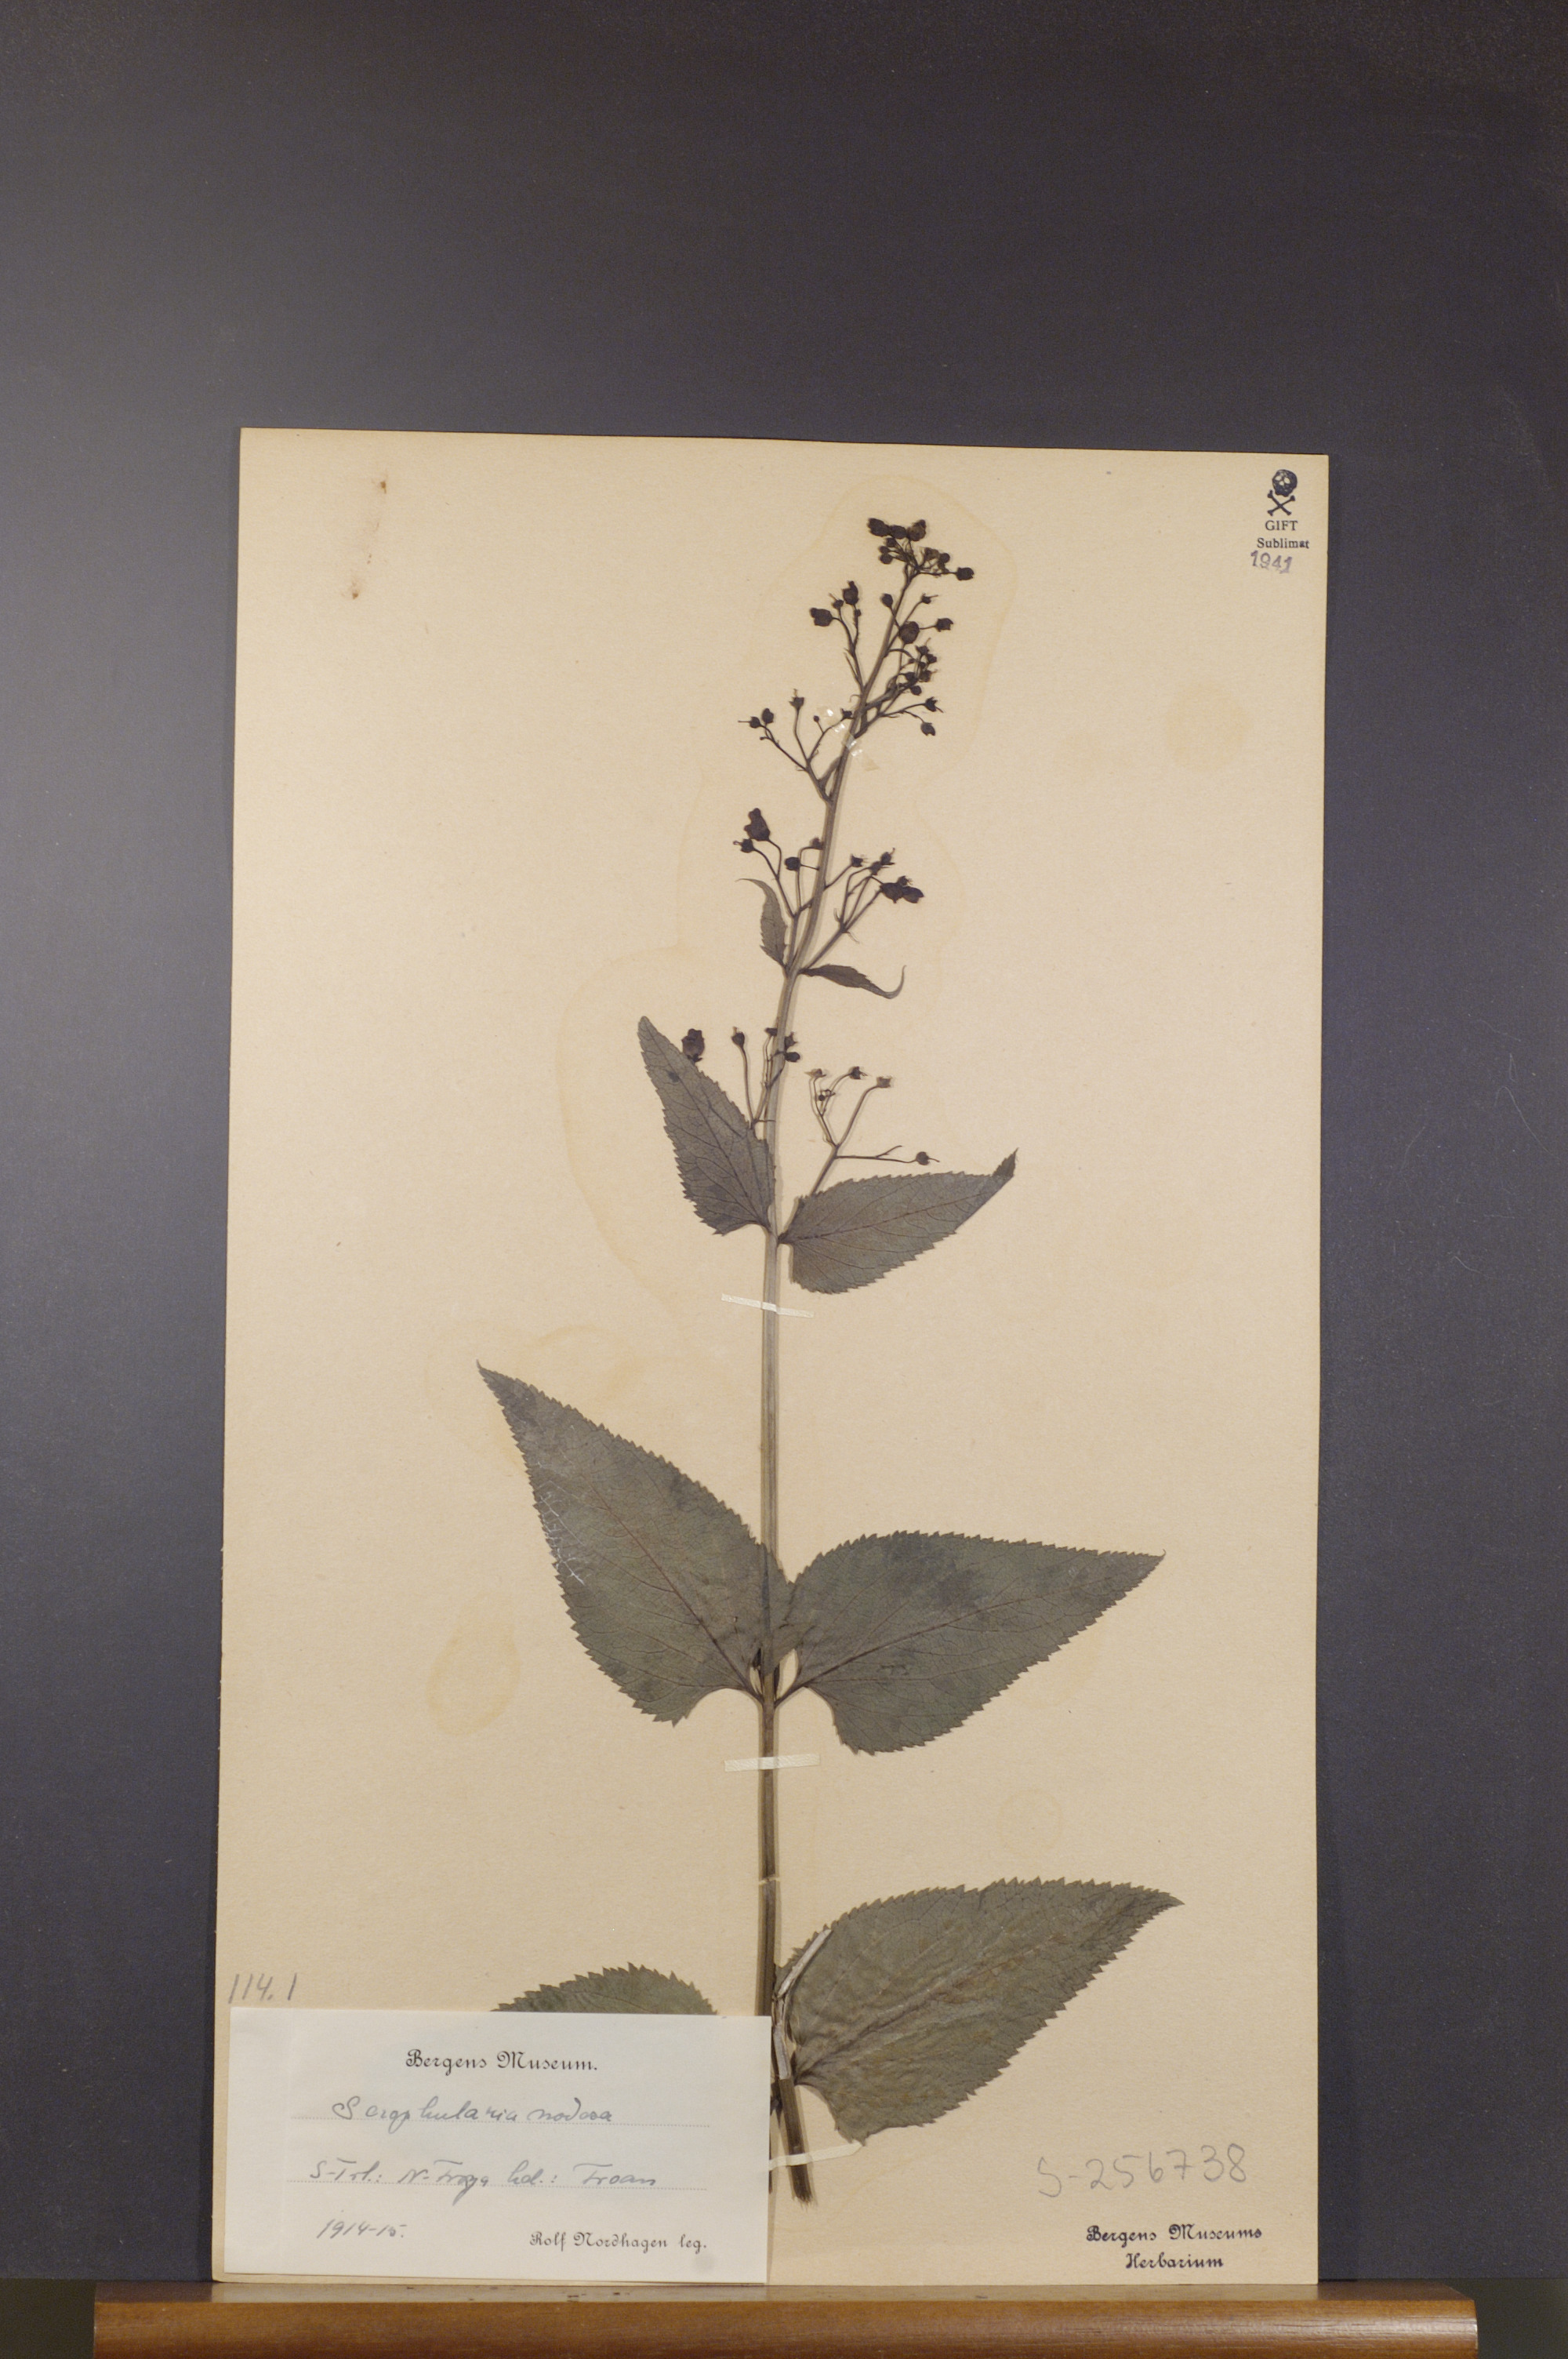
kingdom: Plantae
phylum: Tracheophyta
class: Magnoliopsida
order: Lamiales
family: Scrophulariaceae
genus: Scrophularia
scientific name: Scrophularia nodosa
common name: Common figwort
